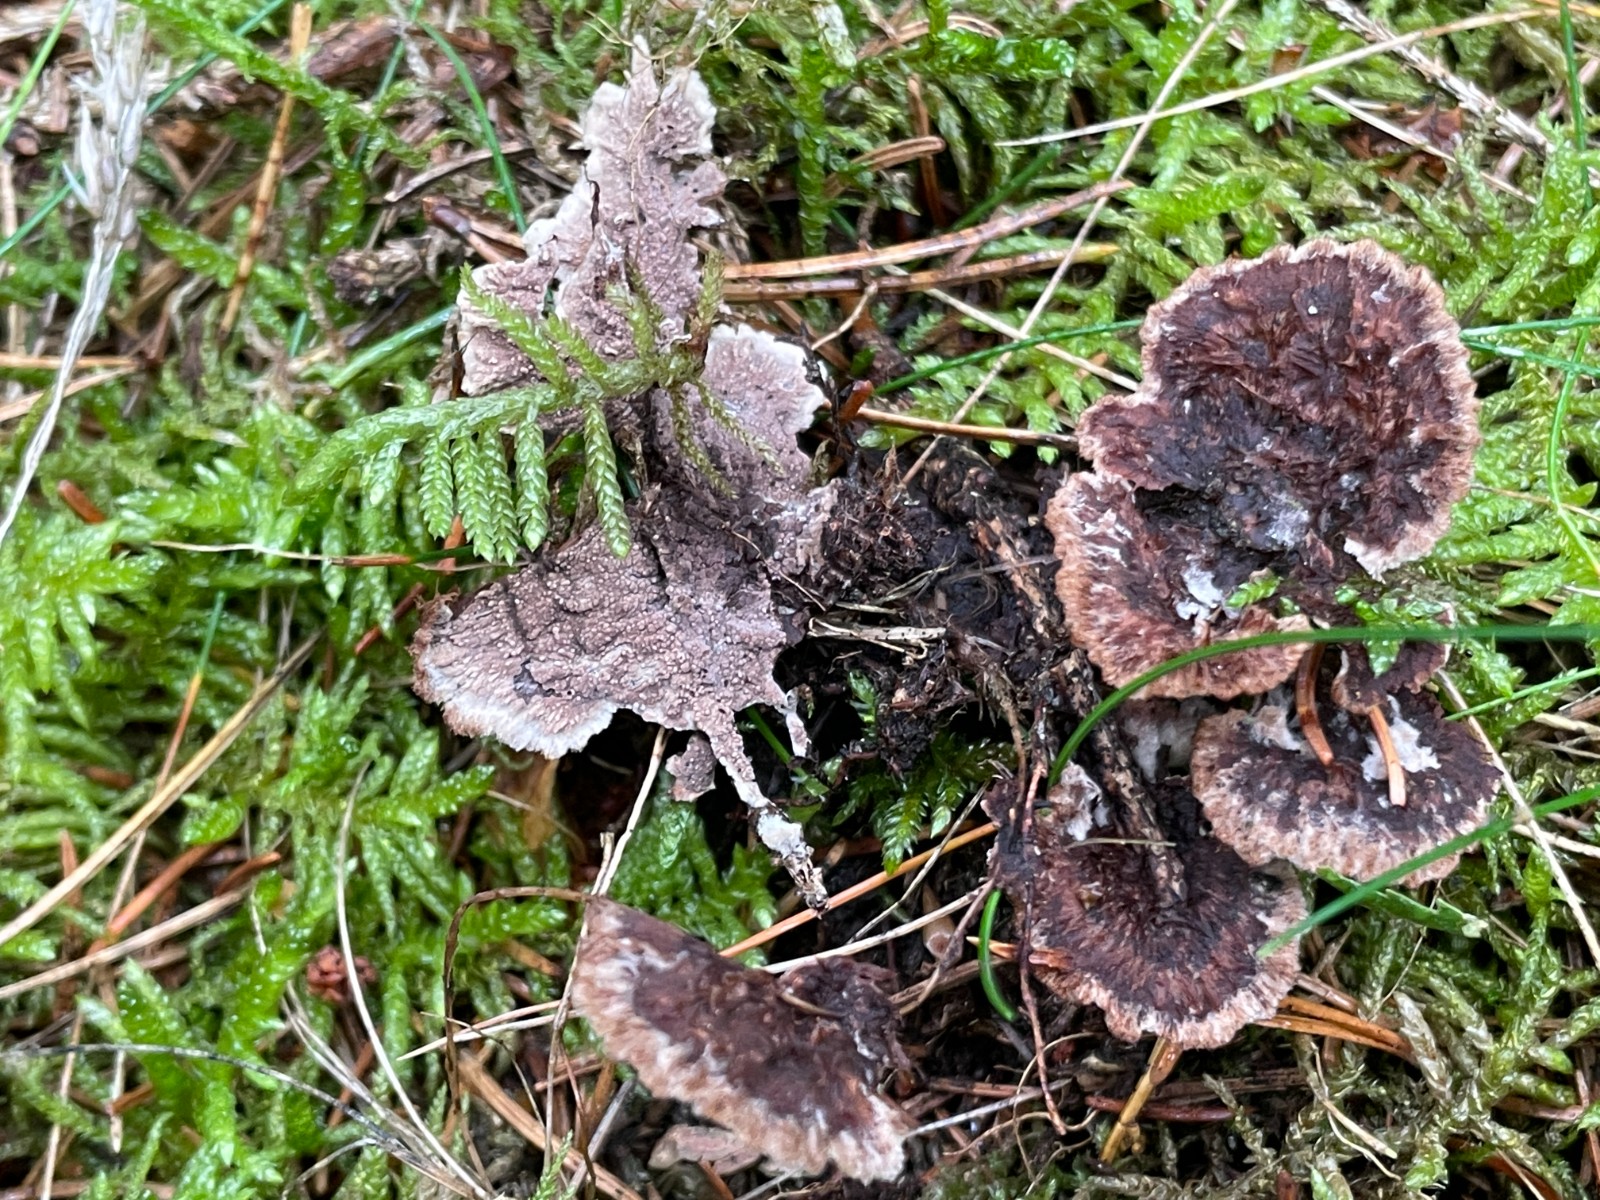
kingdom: Fungi
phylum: Basidiomycota
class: Agaricomycetes
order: Thelephorales
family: Thelephoraceae
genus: Thelephora
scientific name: Thelephora terrestris
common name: fliget frynsesvamp
